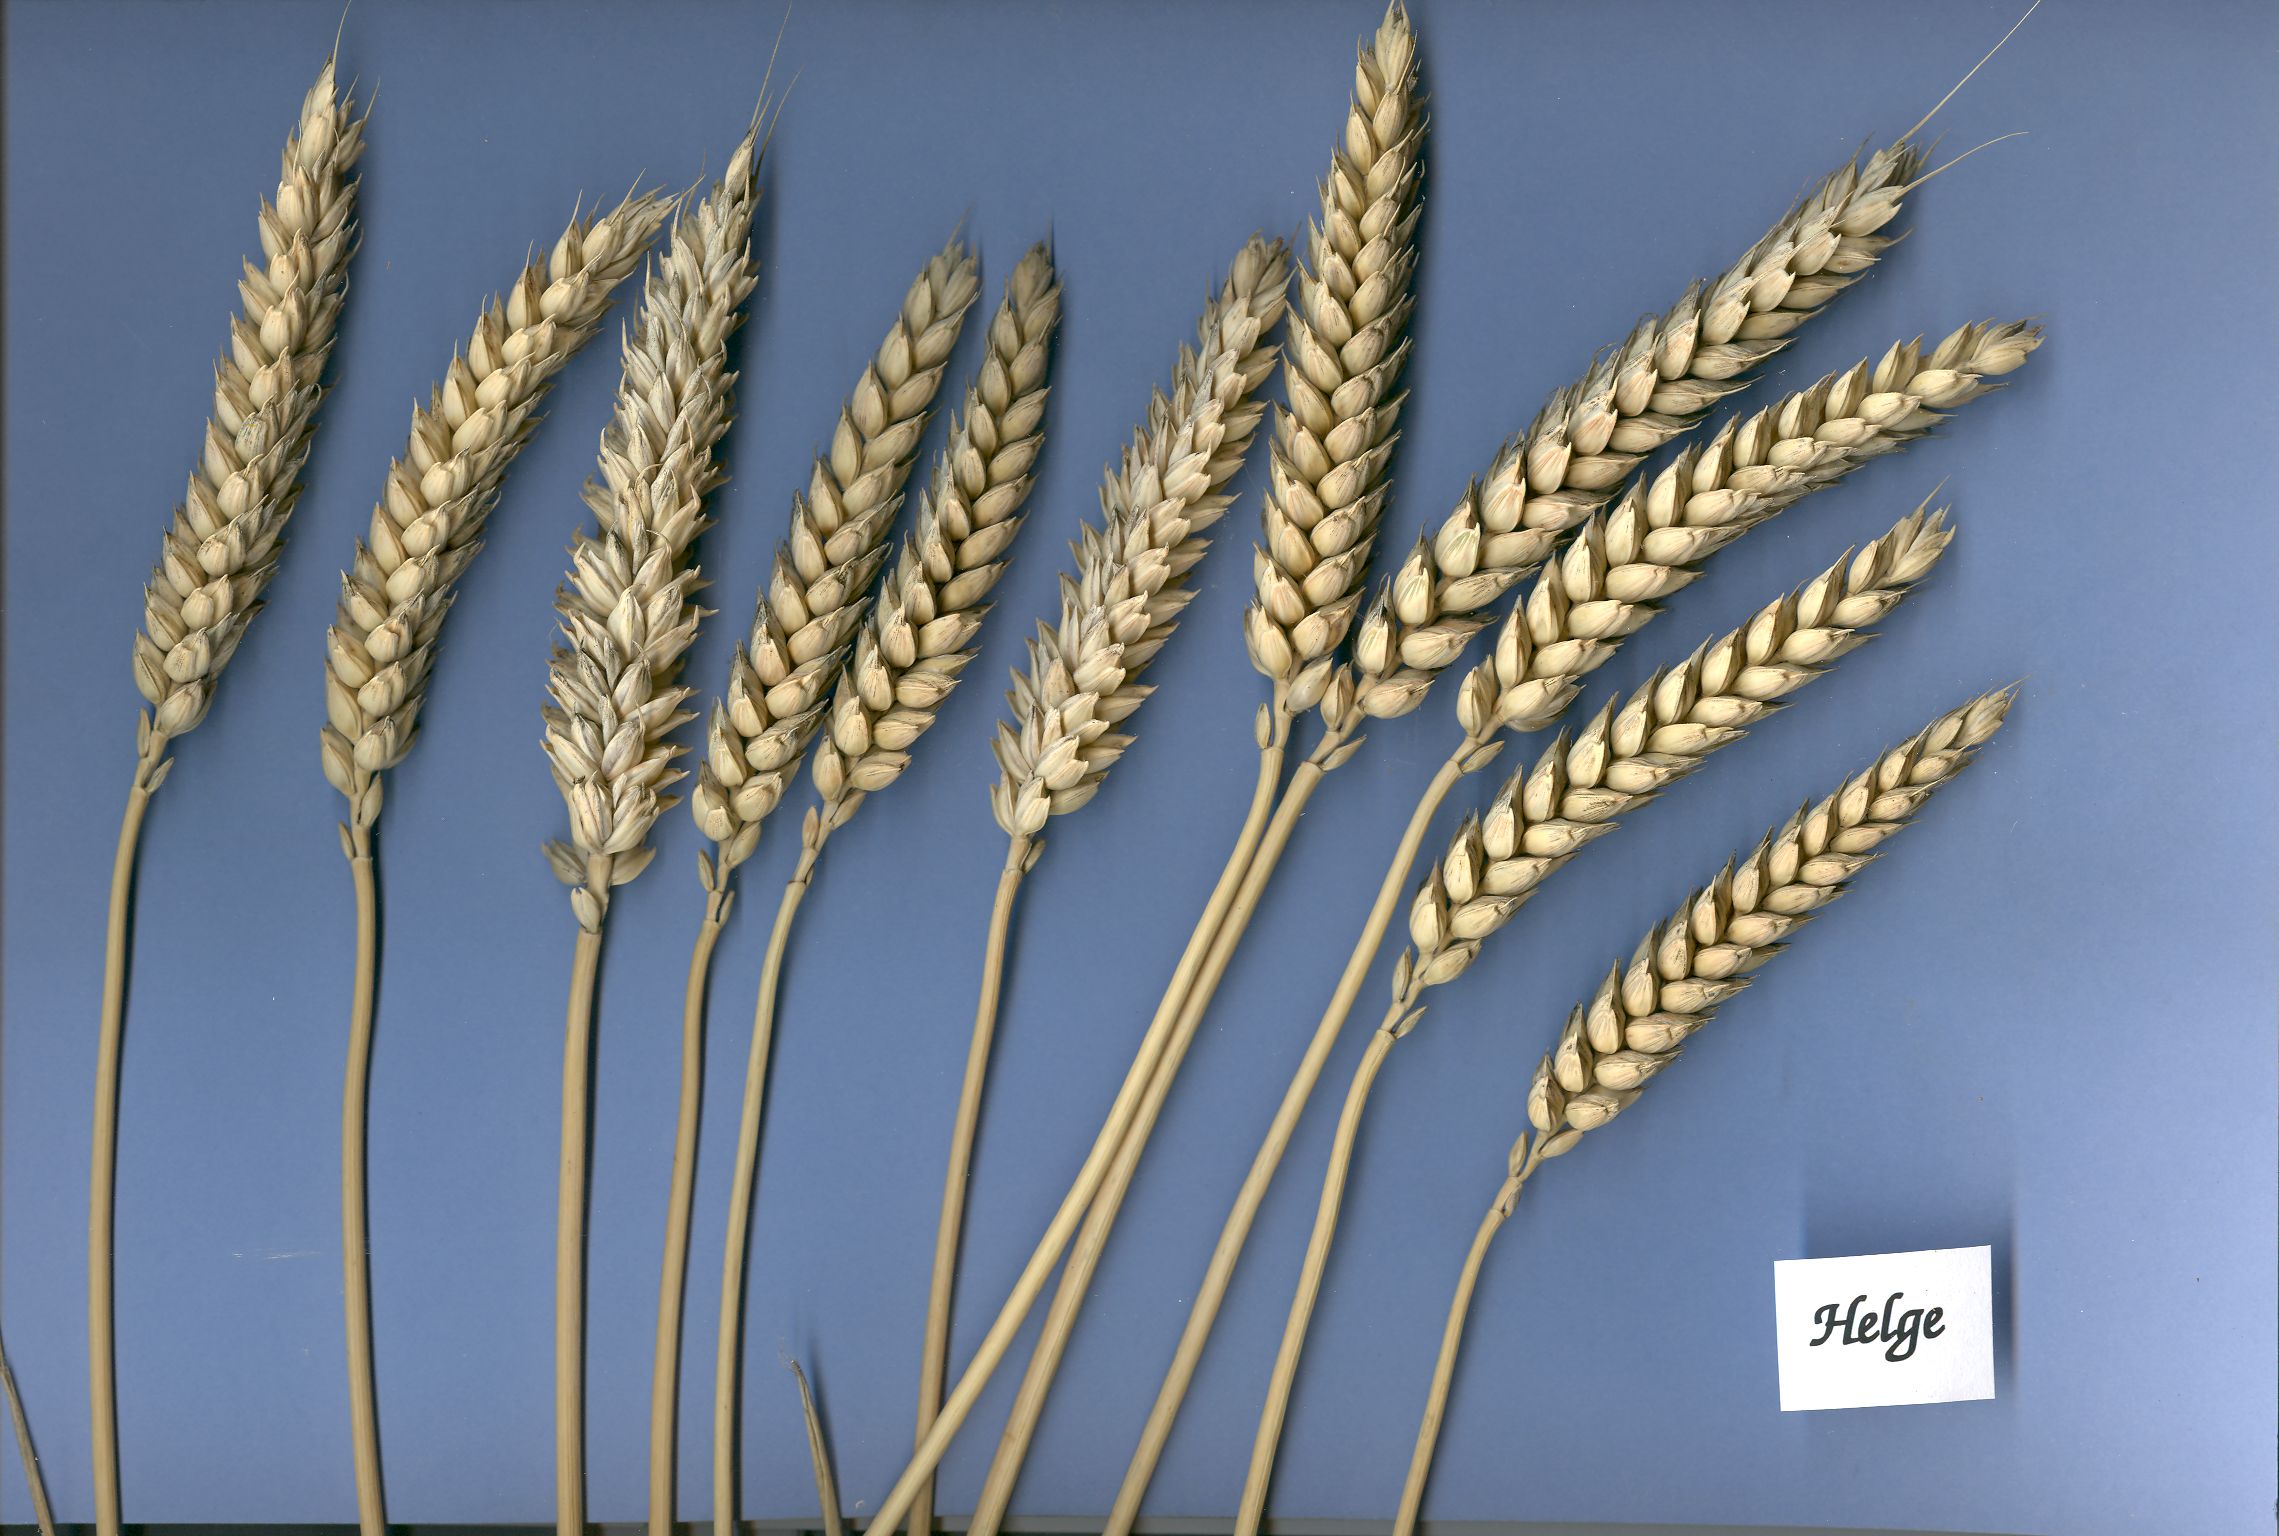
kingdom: Plantae
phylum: Tracheophyta
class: Liliopsida
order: Poales
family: Poaceae
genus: Triticum
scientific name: Triticum aestivum
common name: Common wheat
